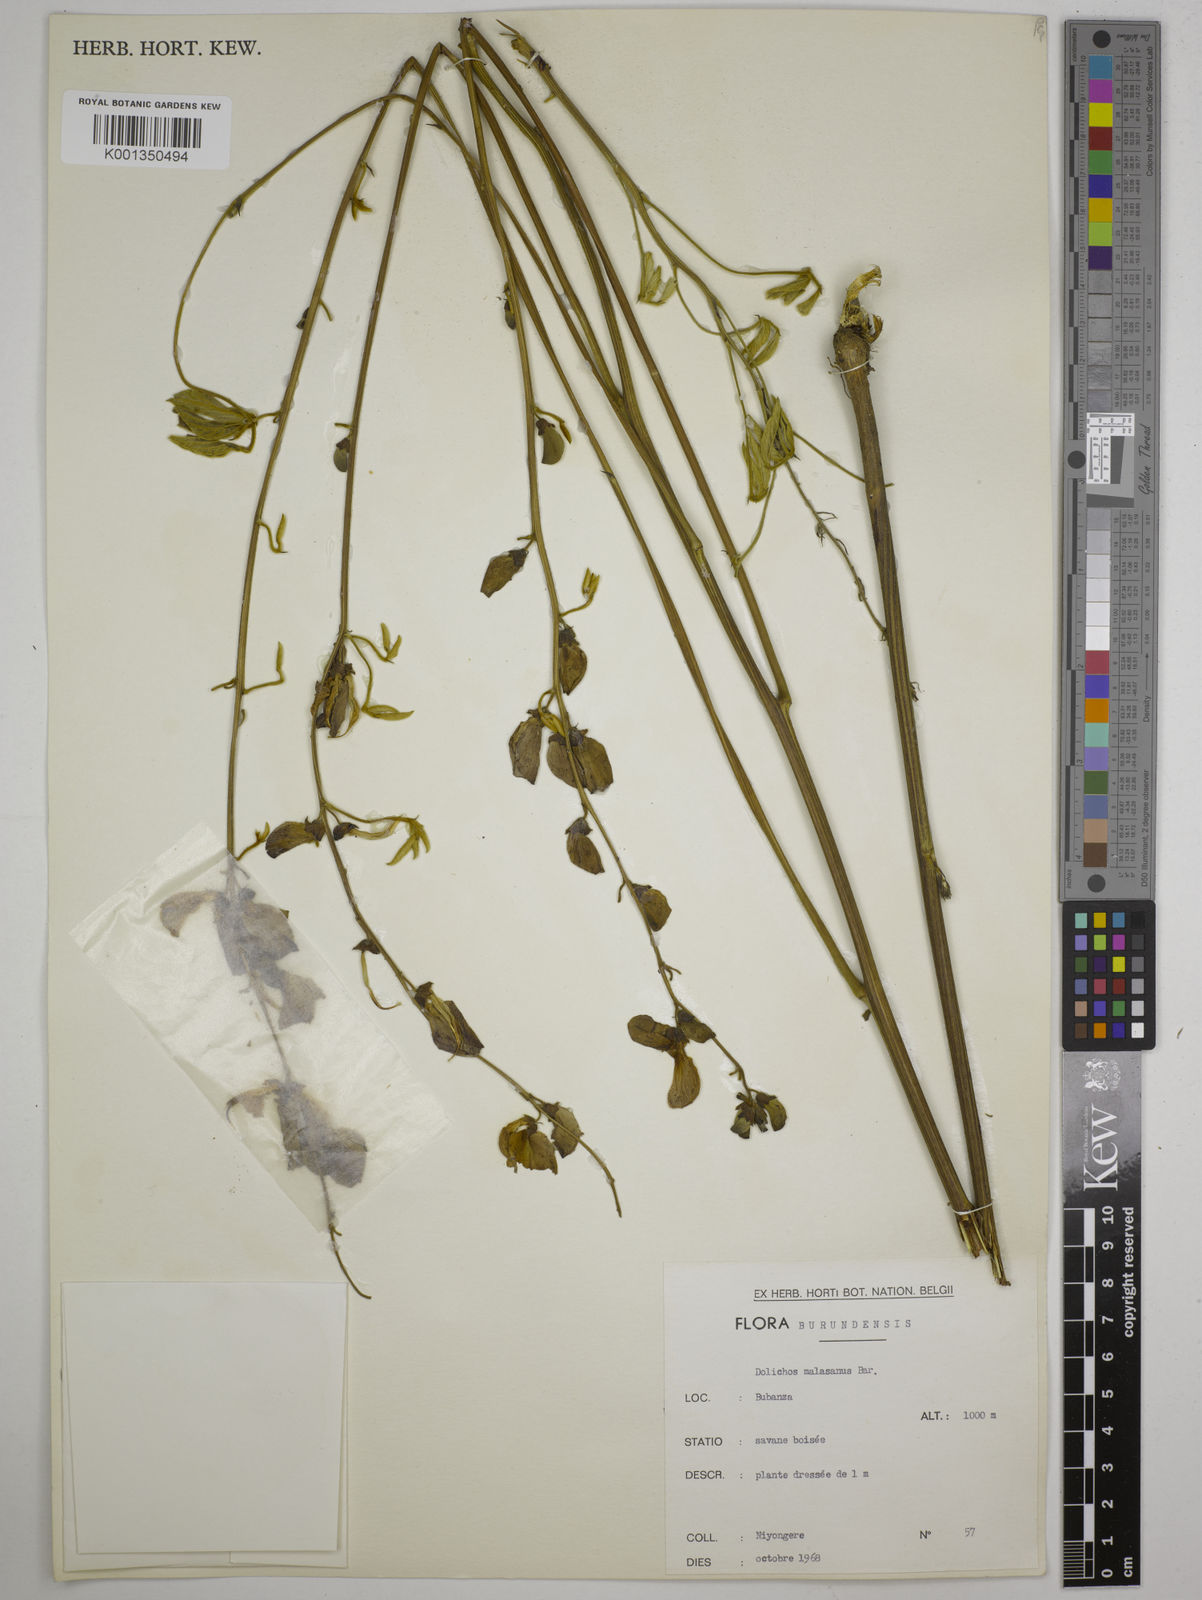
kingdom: Plantae
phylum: Tracheophyta
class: Magnoliopsida
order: Fabales
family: Fabaceae
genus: Dolichos
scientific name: Dolichos kilimandscharicus
